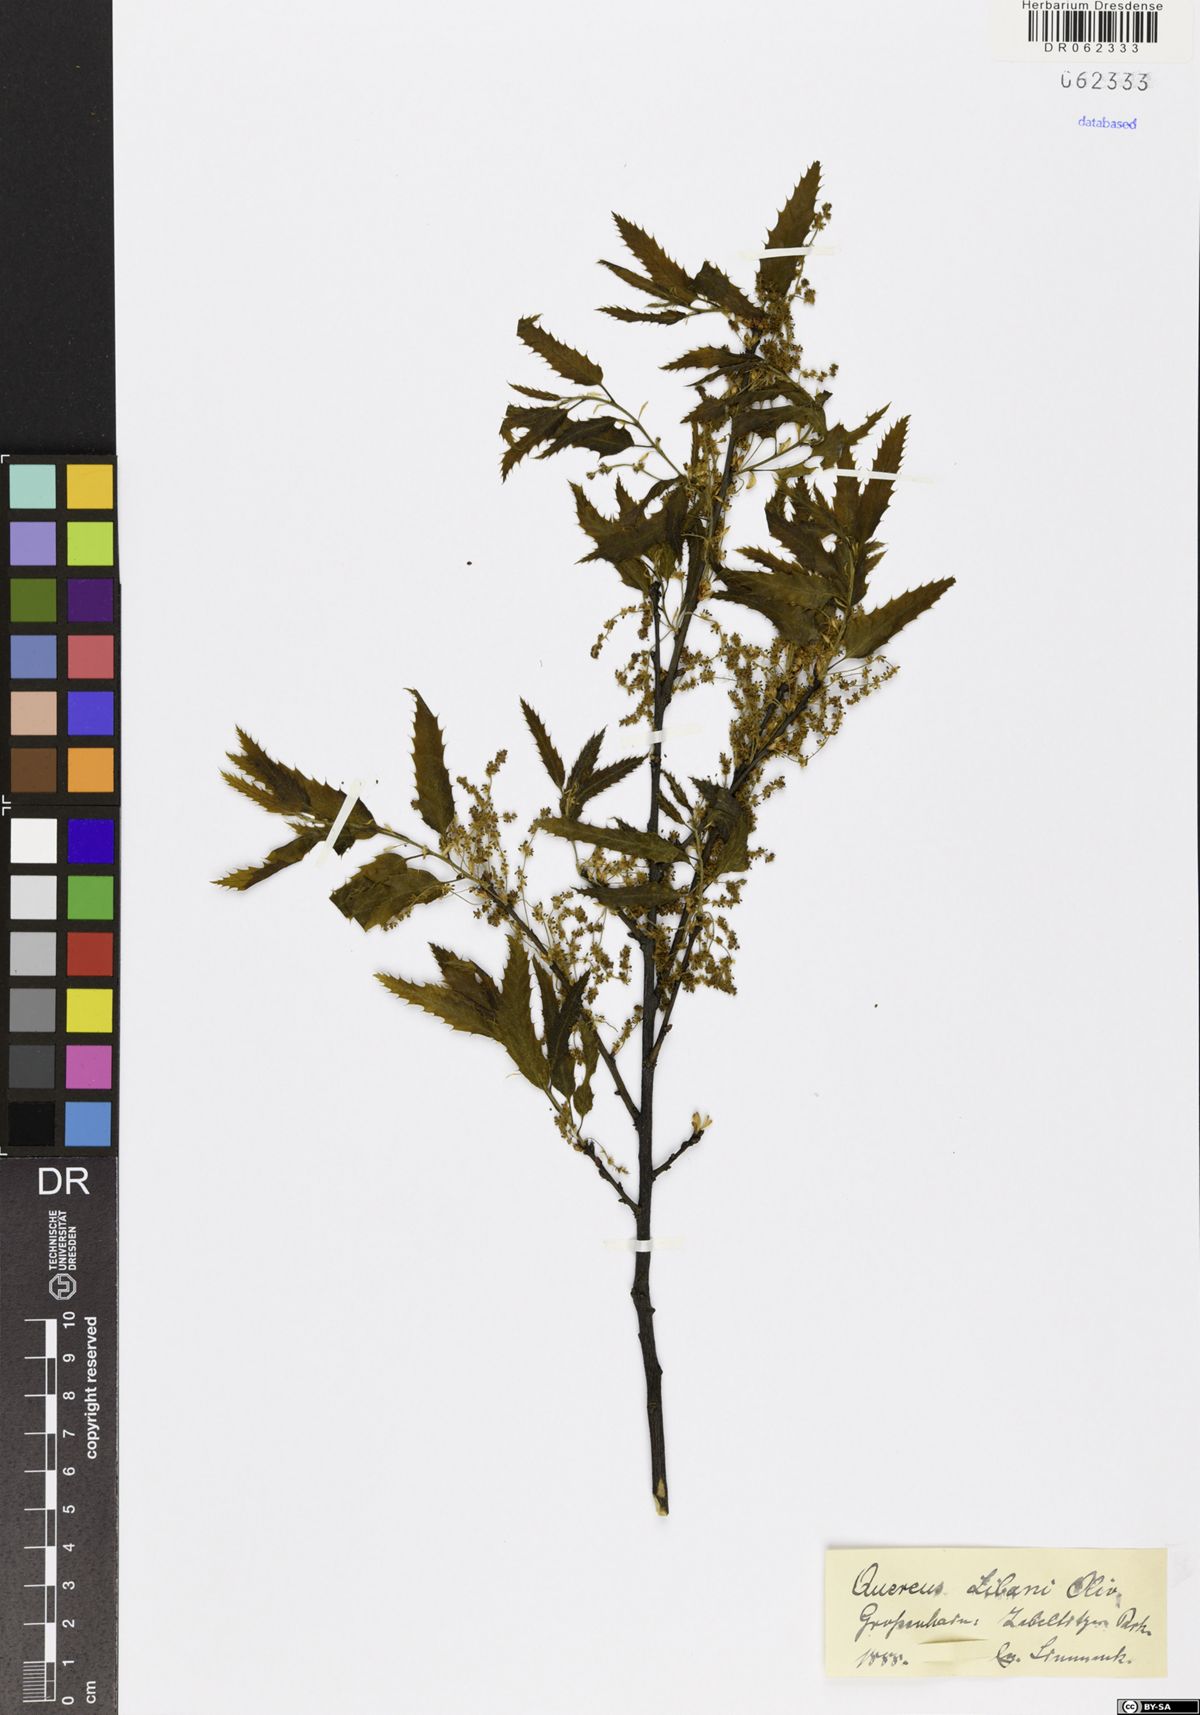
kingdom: Plantae
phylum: Tracheophyta
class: Magnoliopsida
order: Fagales
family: Fagaceae
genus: Quercus
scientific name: Quercus libani
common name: Lebanon oak
